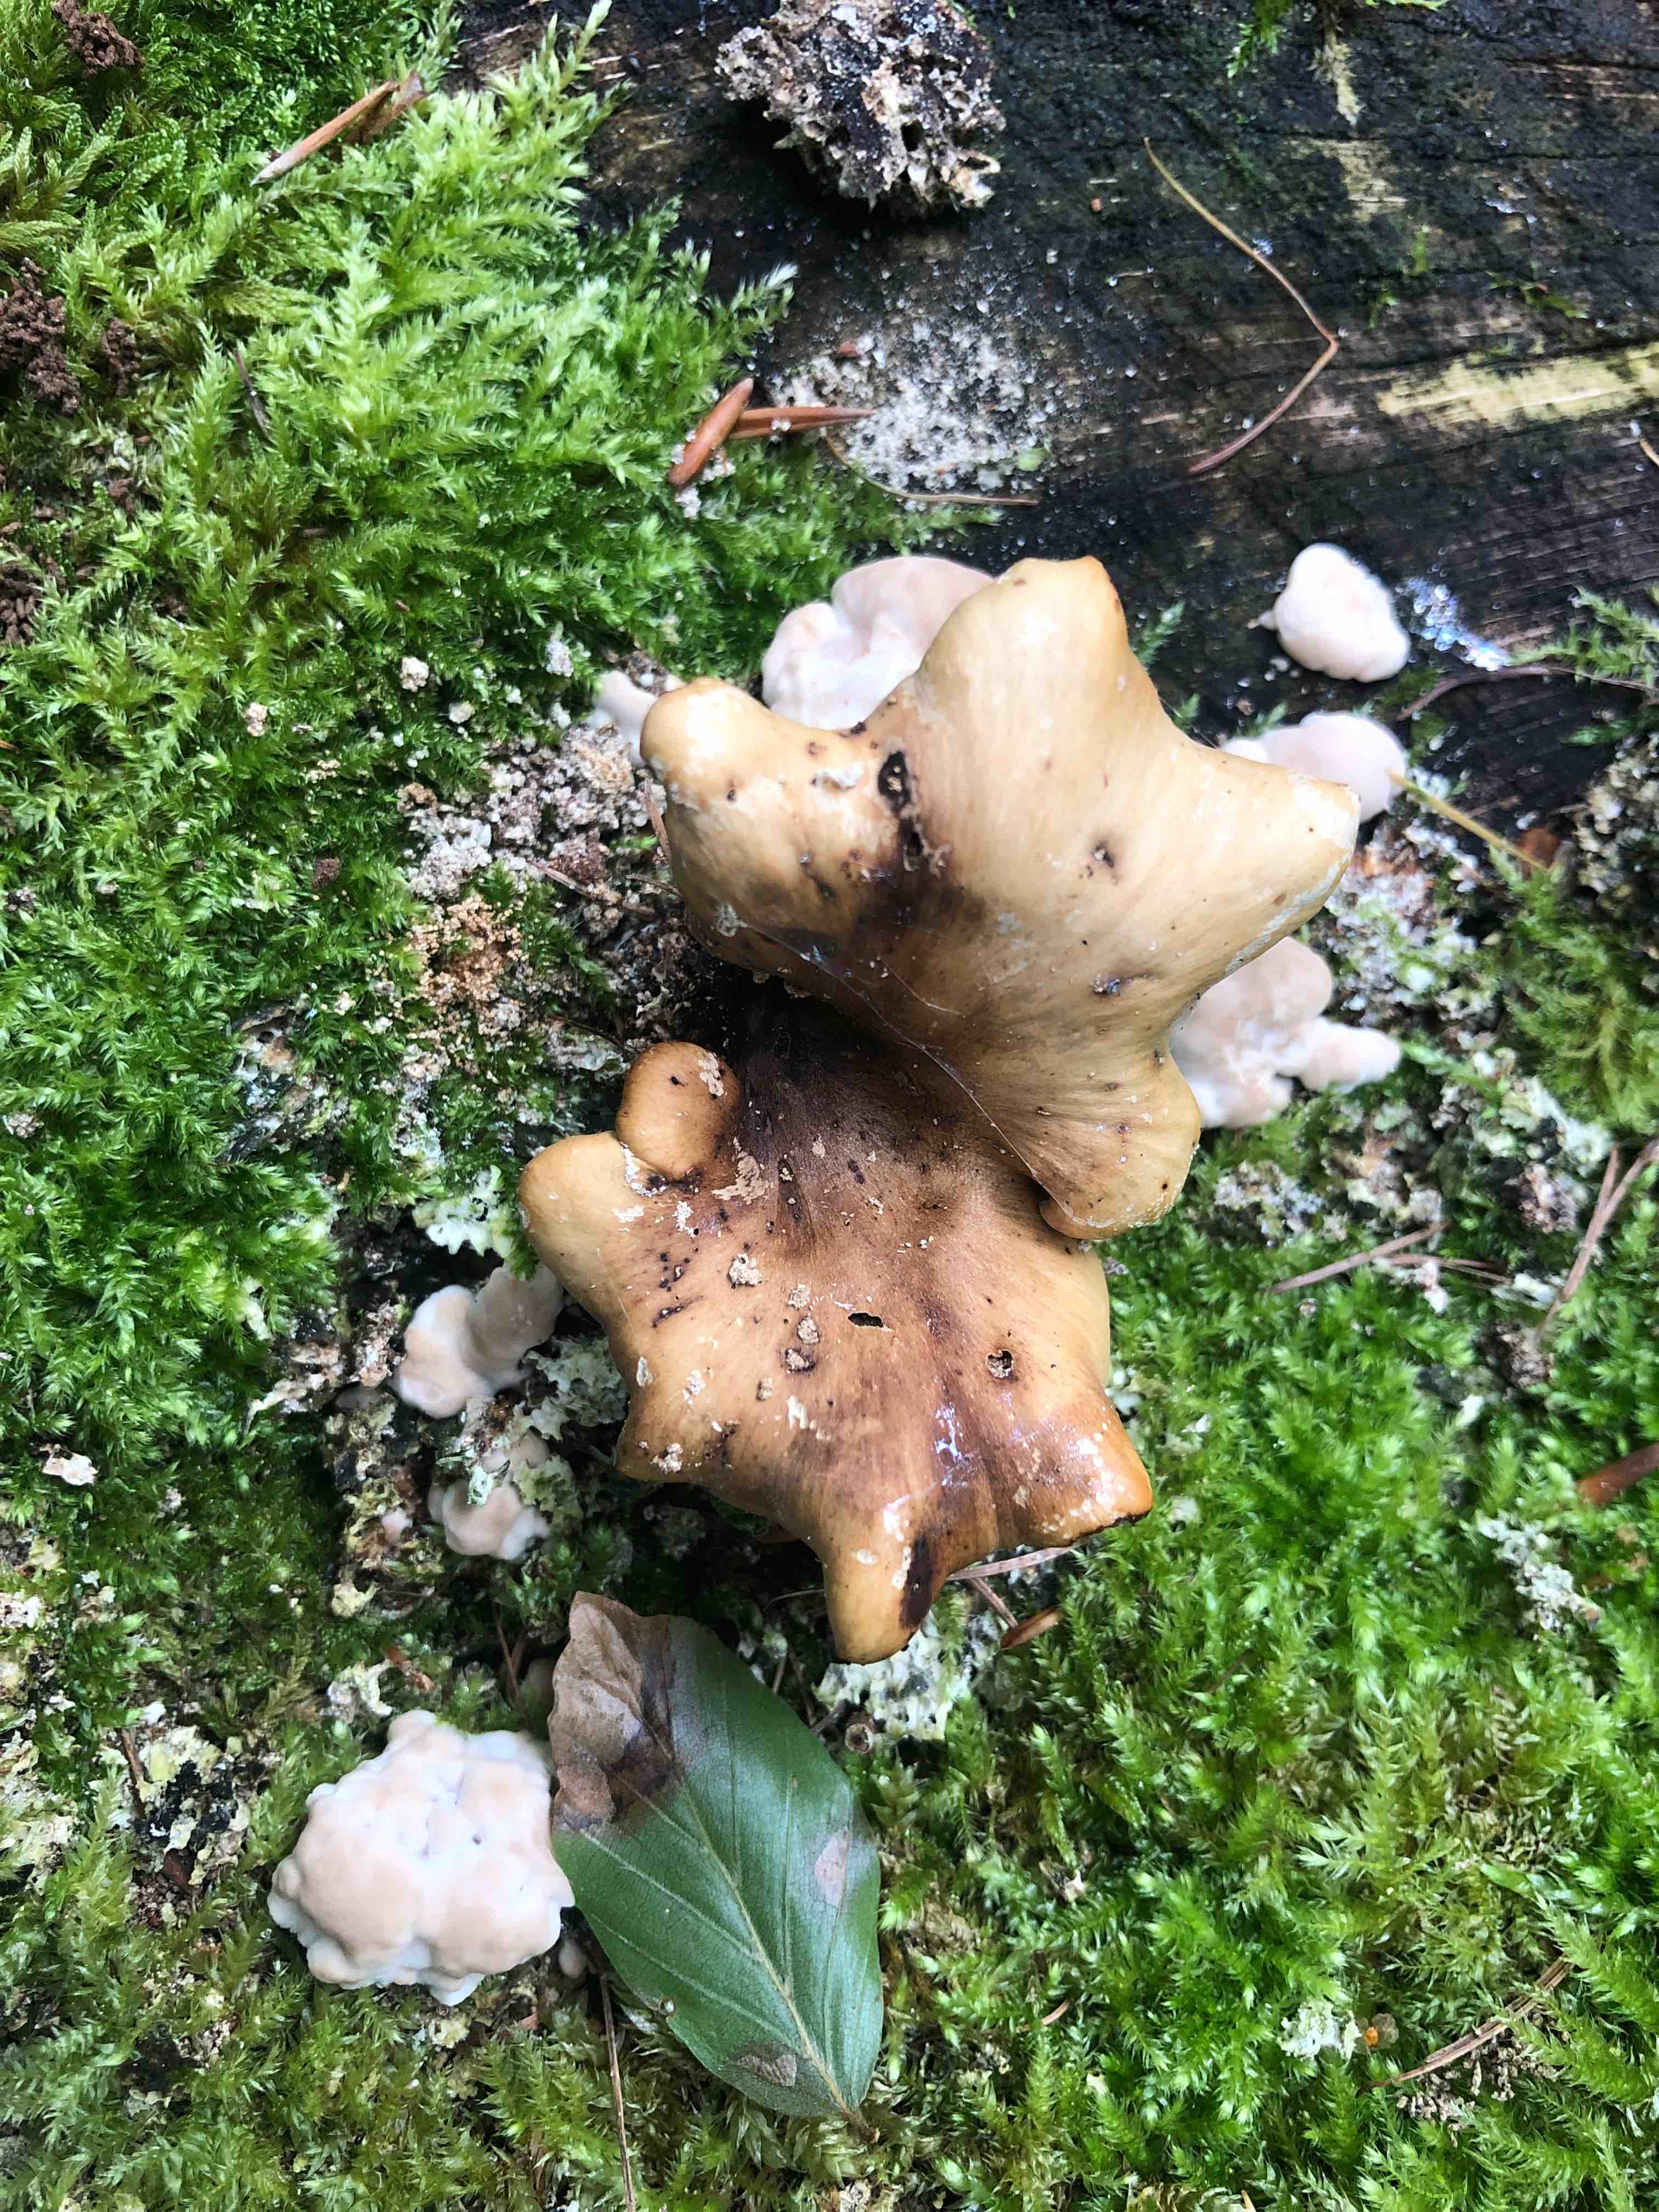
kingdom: Fungi
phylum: Basidiomycota
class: Agaricomycetes
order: Polyporales
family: Polyporaceae
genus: Cerioporus
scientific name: Cerioporus varius
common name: foranderlig stilkporesvamp
